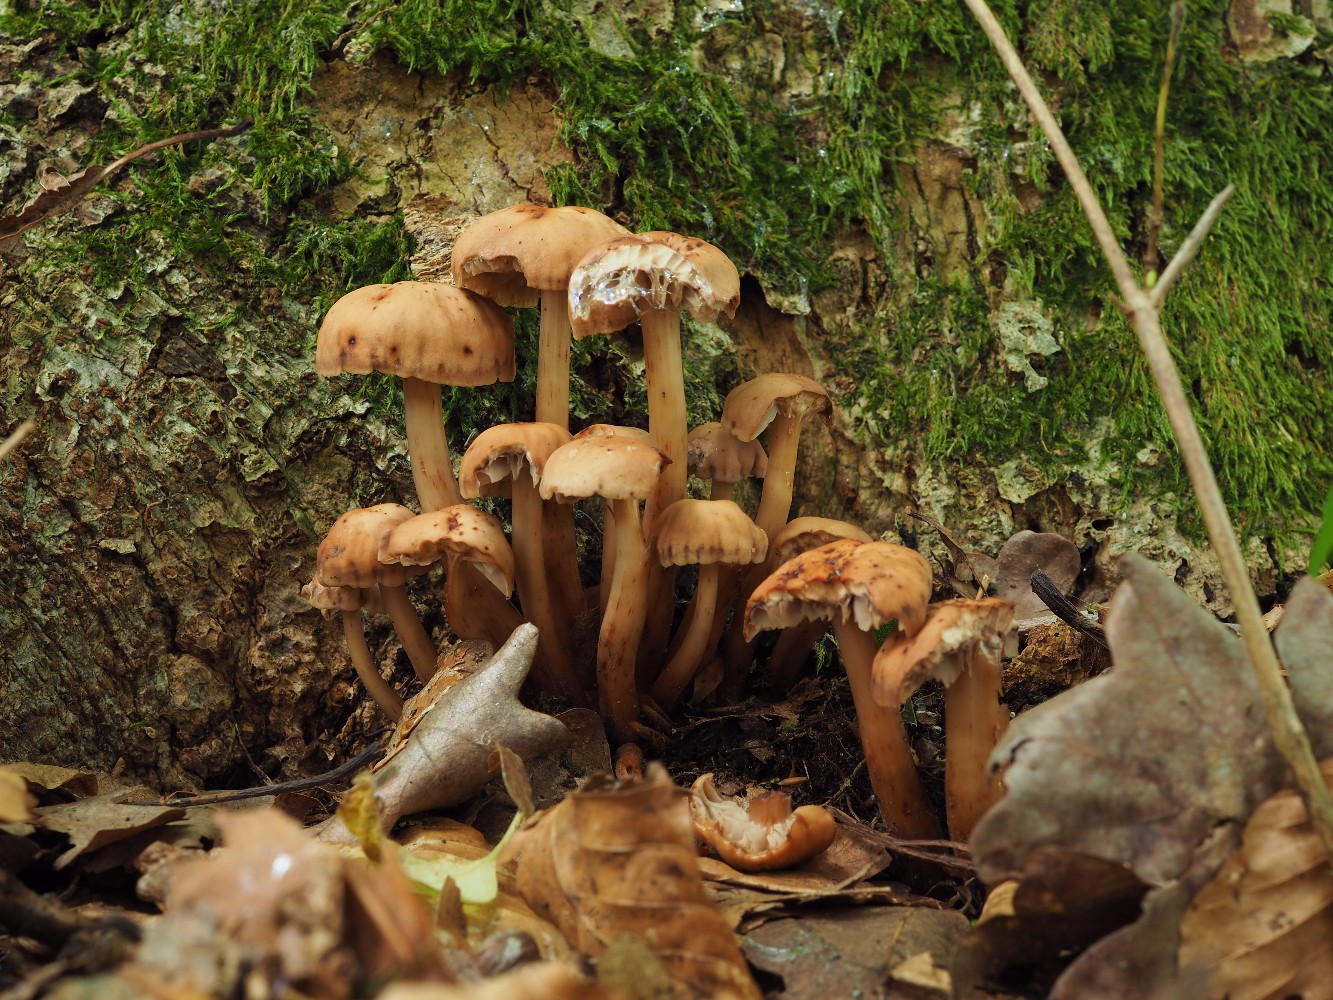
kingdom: Fungi
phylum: Basidiomycota
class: Agaricomycetes
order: Agaricales
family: Omphalotaceae
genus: Gymnopus
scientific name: Gymnopus fusipes
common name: tenstokket fladhat
